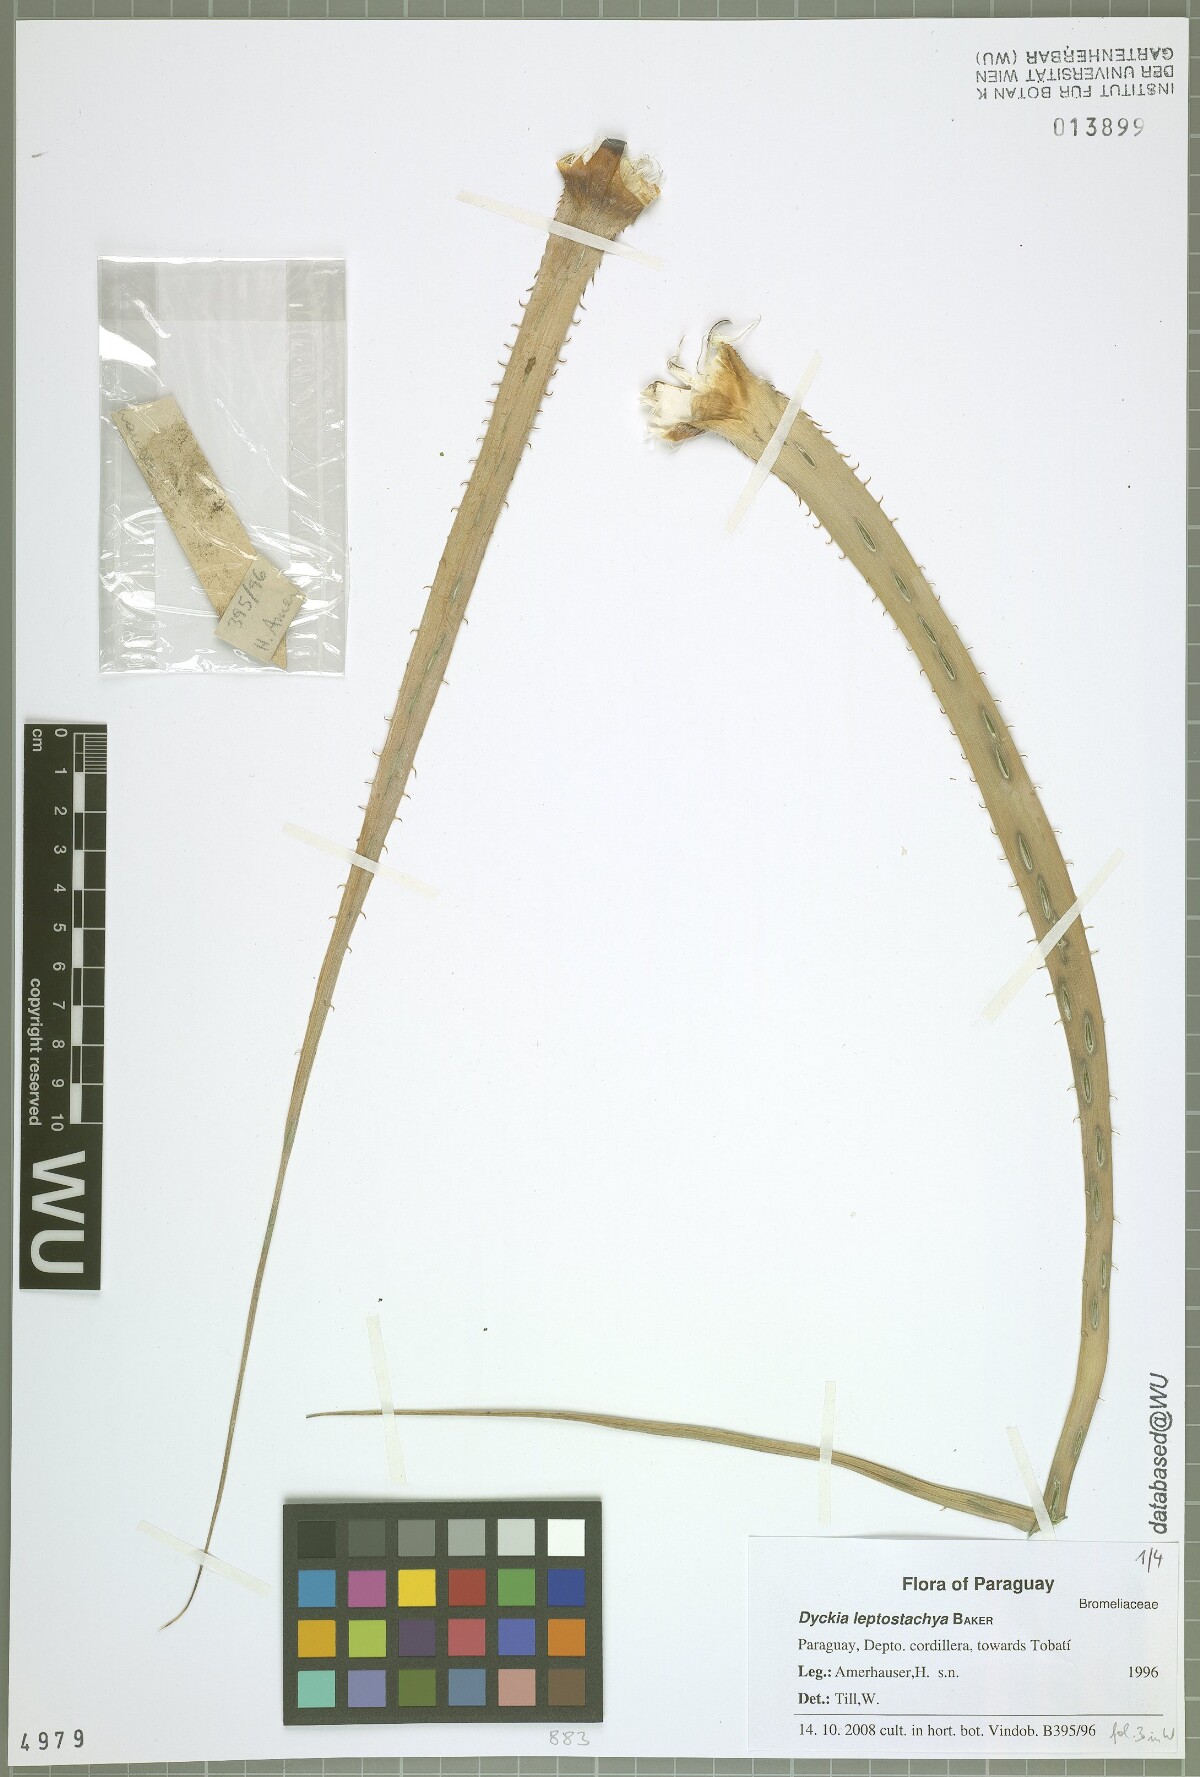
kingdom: Plantae
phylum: Tracheophyta
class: Liliopsida
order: Poales
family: Bromeliaceae
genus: Dyckia
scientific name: Dyckia leptostachya
